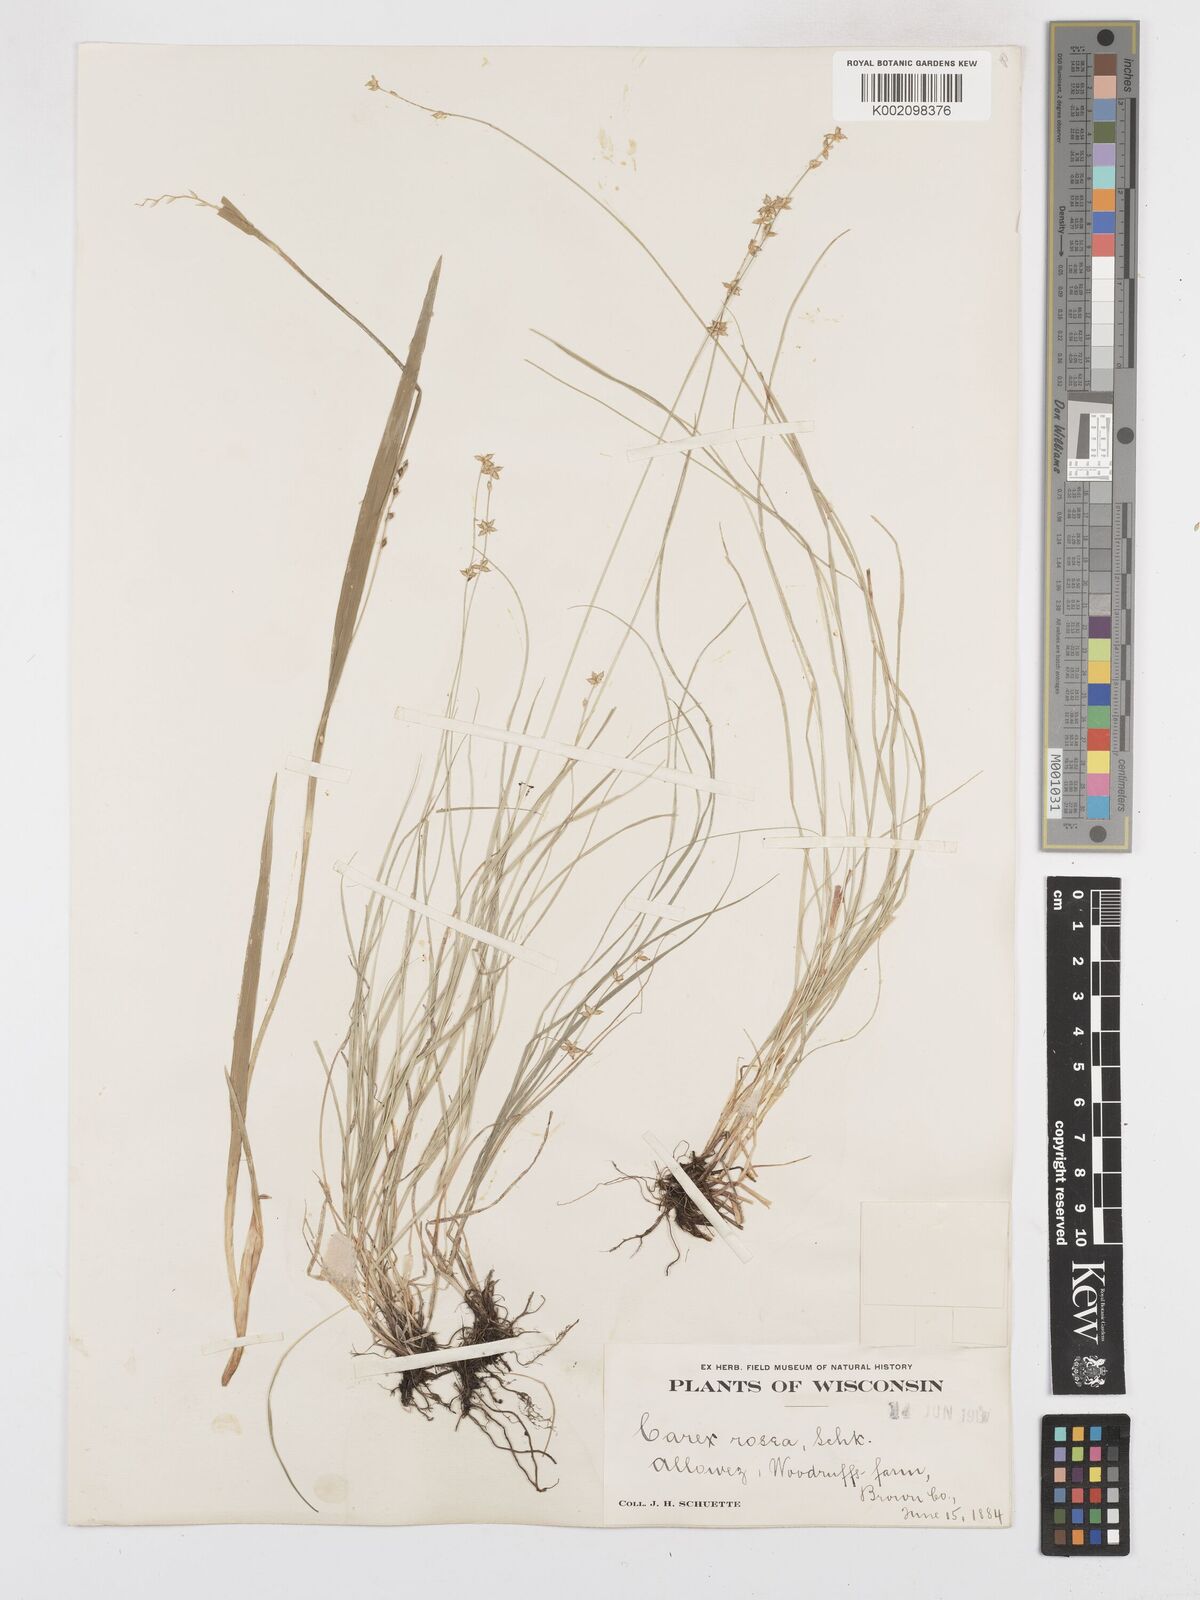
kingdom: Plantae
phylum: Tracheophyta
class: Liliopsida
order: Poales
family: Cyperaceae
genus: Carex
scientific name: Carex rosea
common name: Curly-styled wood sedge
